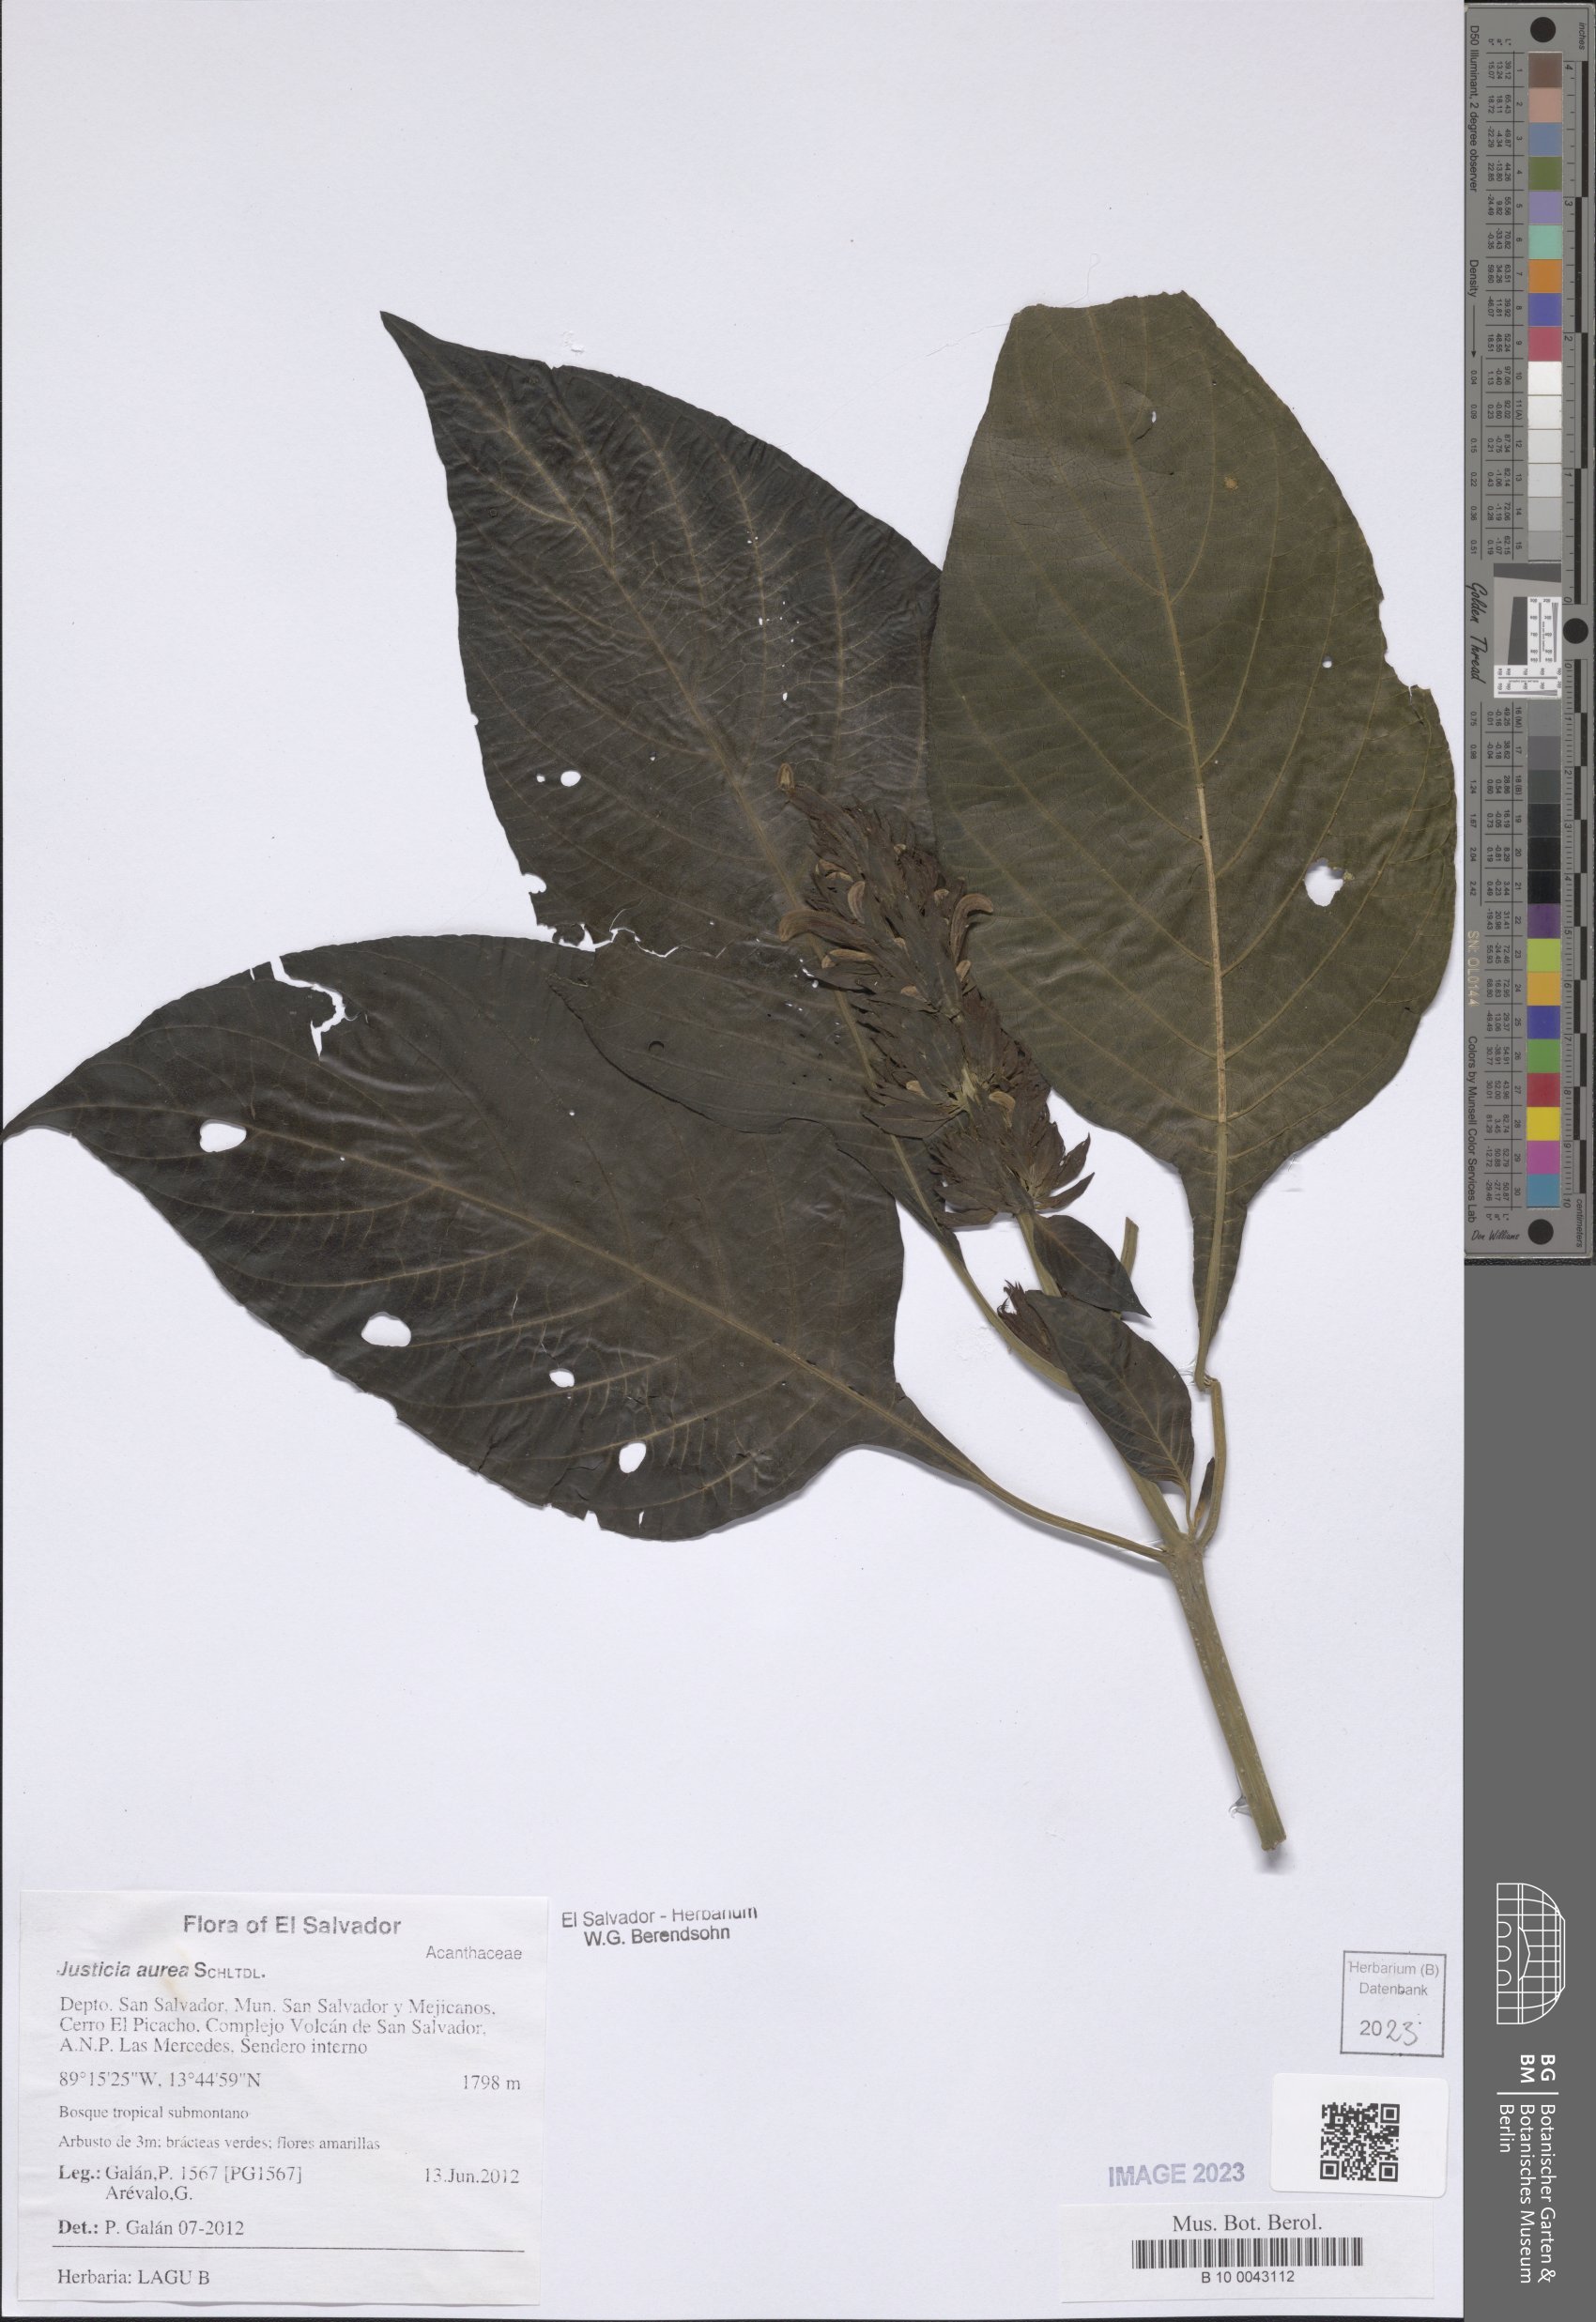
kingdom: Plantae
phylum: Tracheophyta
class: Magnoliopsida
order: Lamiales
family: Acanthaceae
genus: Justicia
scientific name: Justicia aurea
